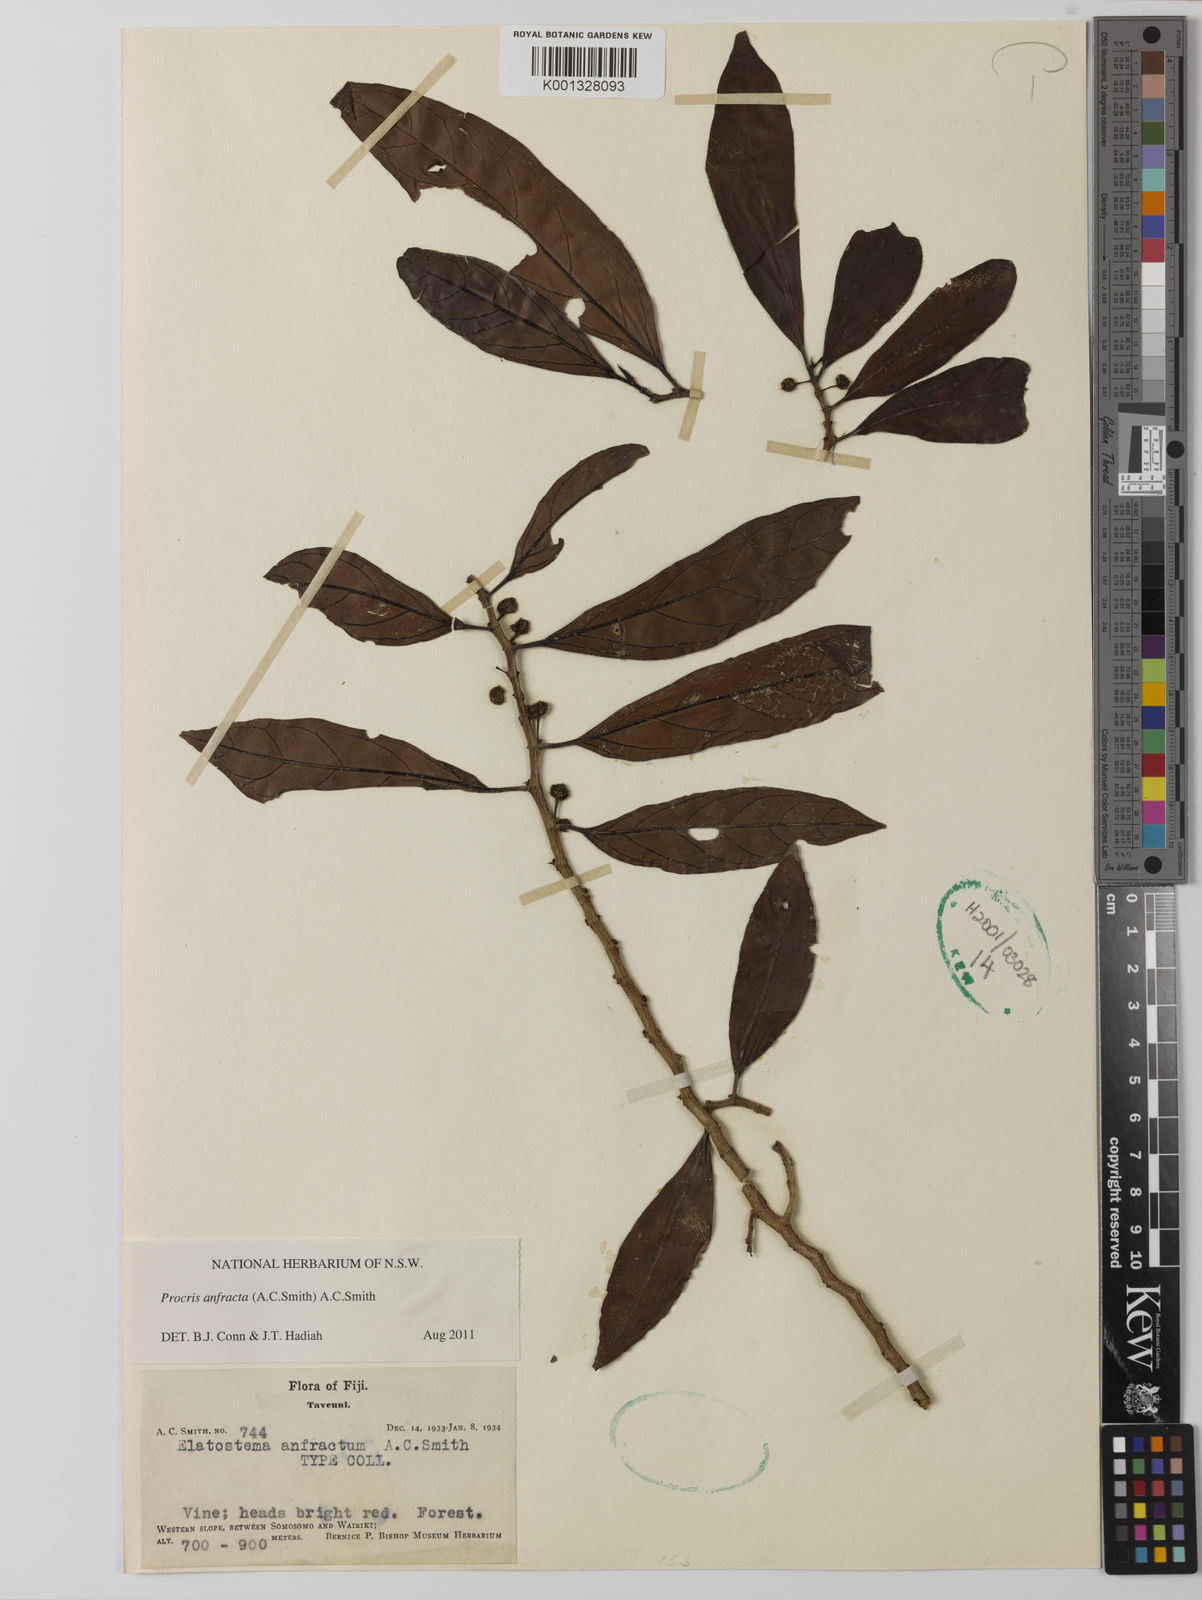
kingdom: Plantae
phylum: Tracheophyta
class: Magnoliopsida
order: Rosales
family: Urticaceae
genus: Procris
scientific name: Procris anfracta
